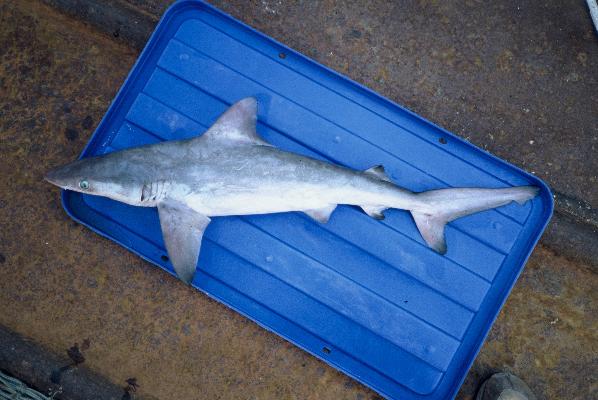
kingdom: Animalia
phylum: Chordata
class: Elasmobranchii
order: Carcharhiniformes
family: Carcharhinidae
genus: Carcharhinus
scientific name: Carcharhinus melanopterus
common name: Blacktip reef shark
